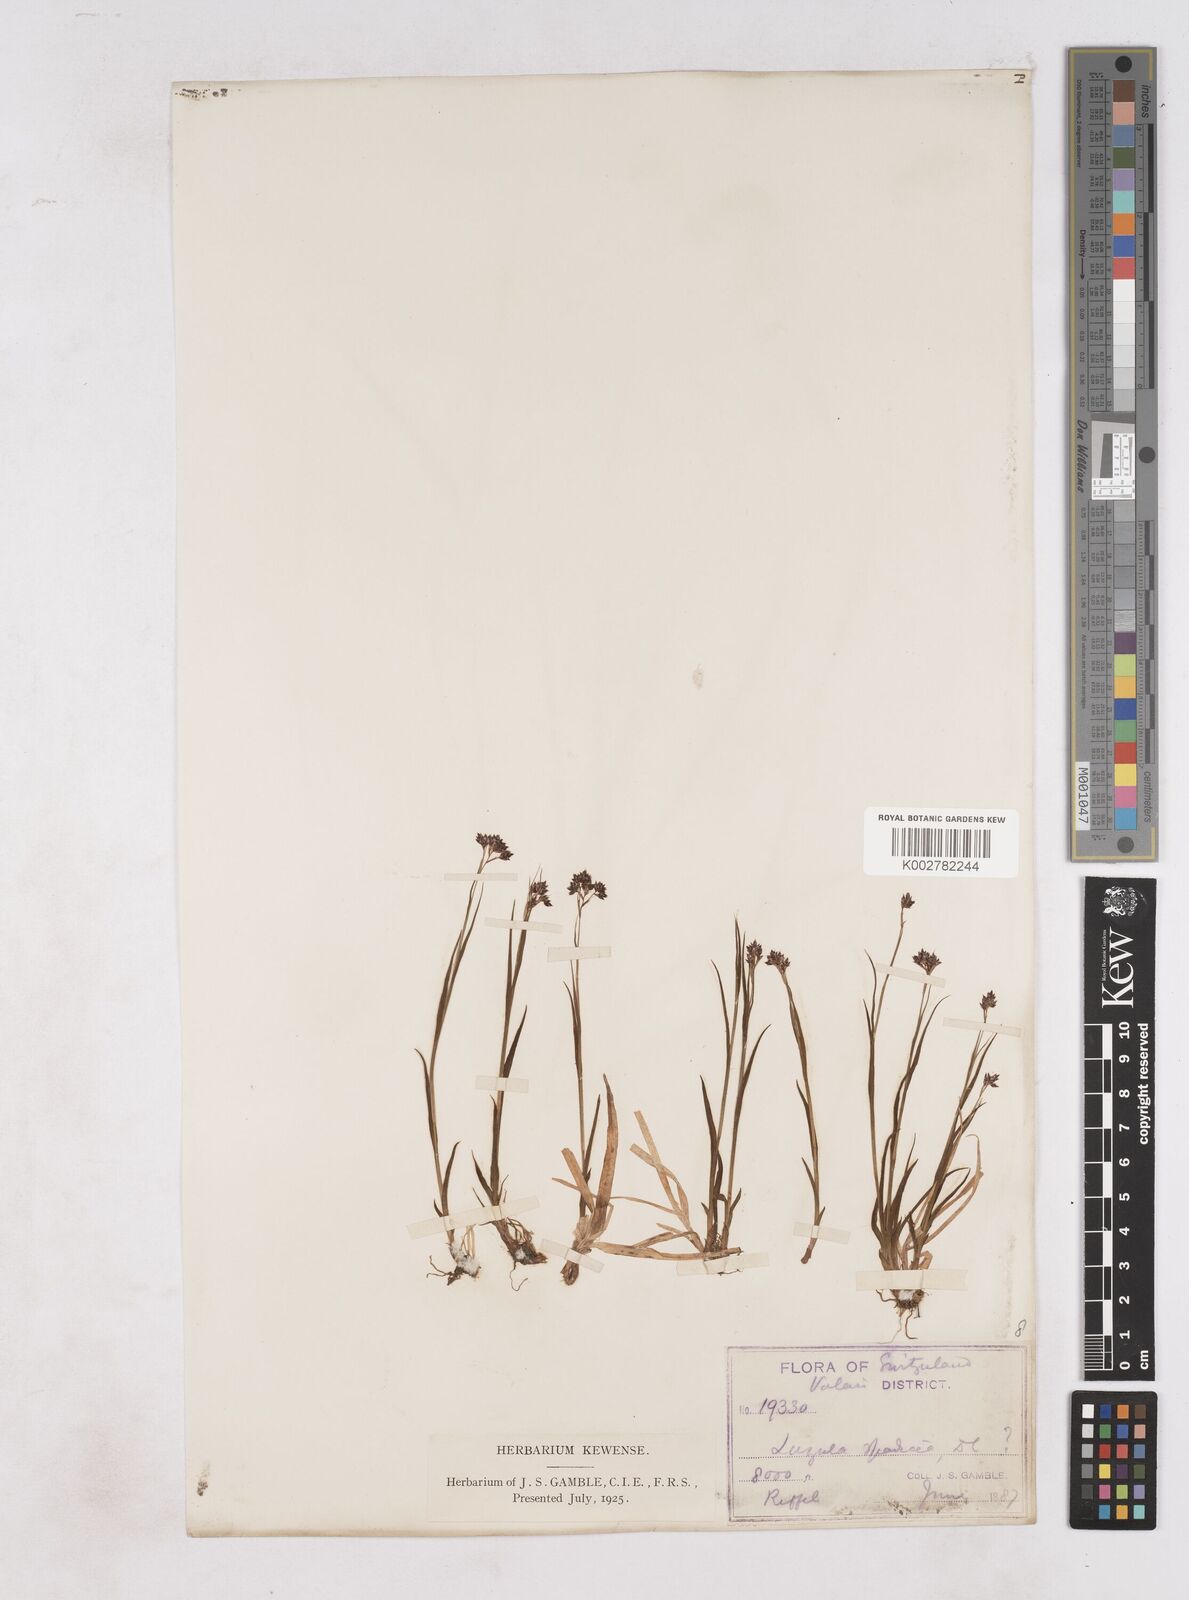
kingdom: Plantae
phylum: Tracheophyta
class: Liliopsida
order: Poales
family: Juncaceae
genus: Luzula
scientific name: Luzula alpinopilosa
